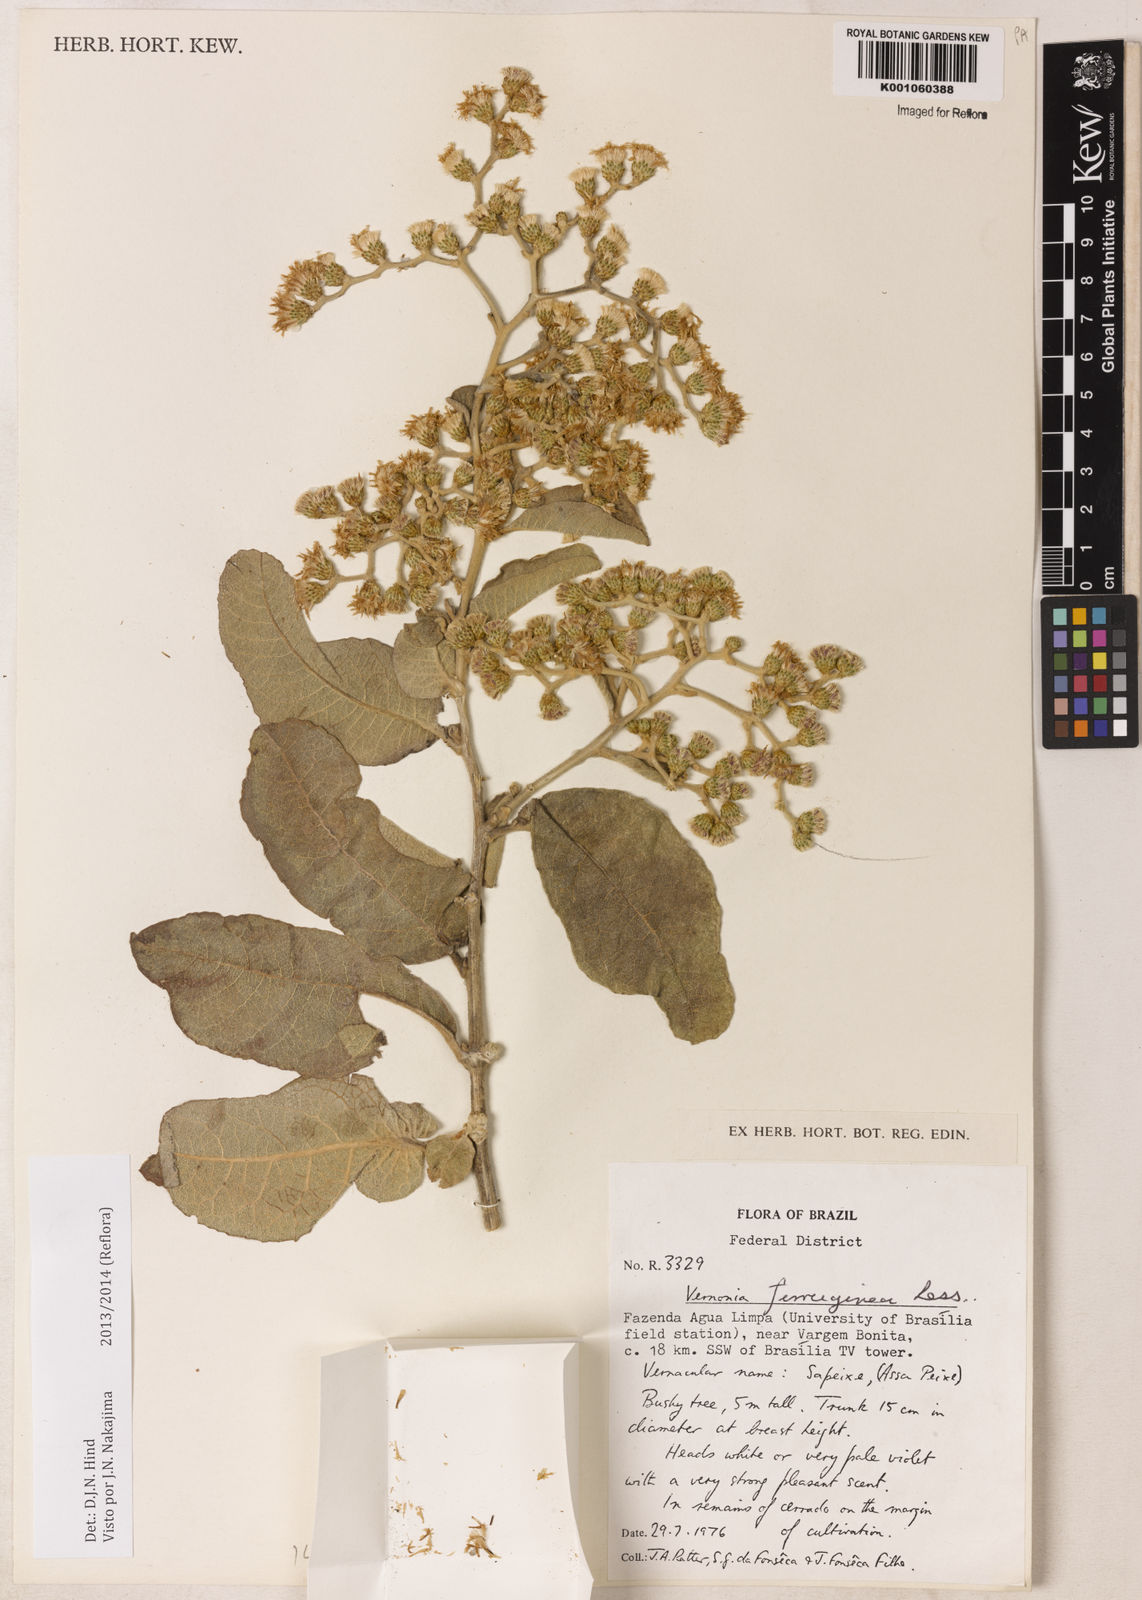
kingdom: Plantae
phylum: Tracheophyta
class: Magnoliopsida
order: Asterales
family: Asteraceae
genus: Vernonanthura
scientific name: Vernonanthura ferruginea
